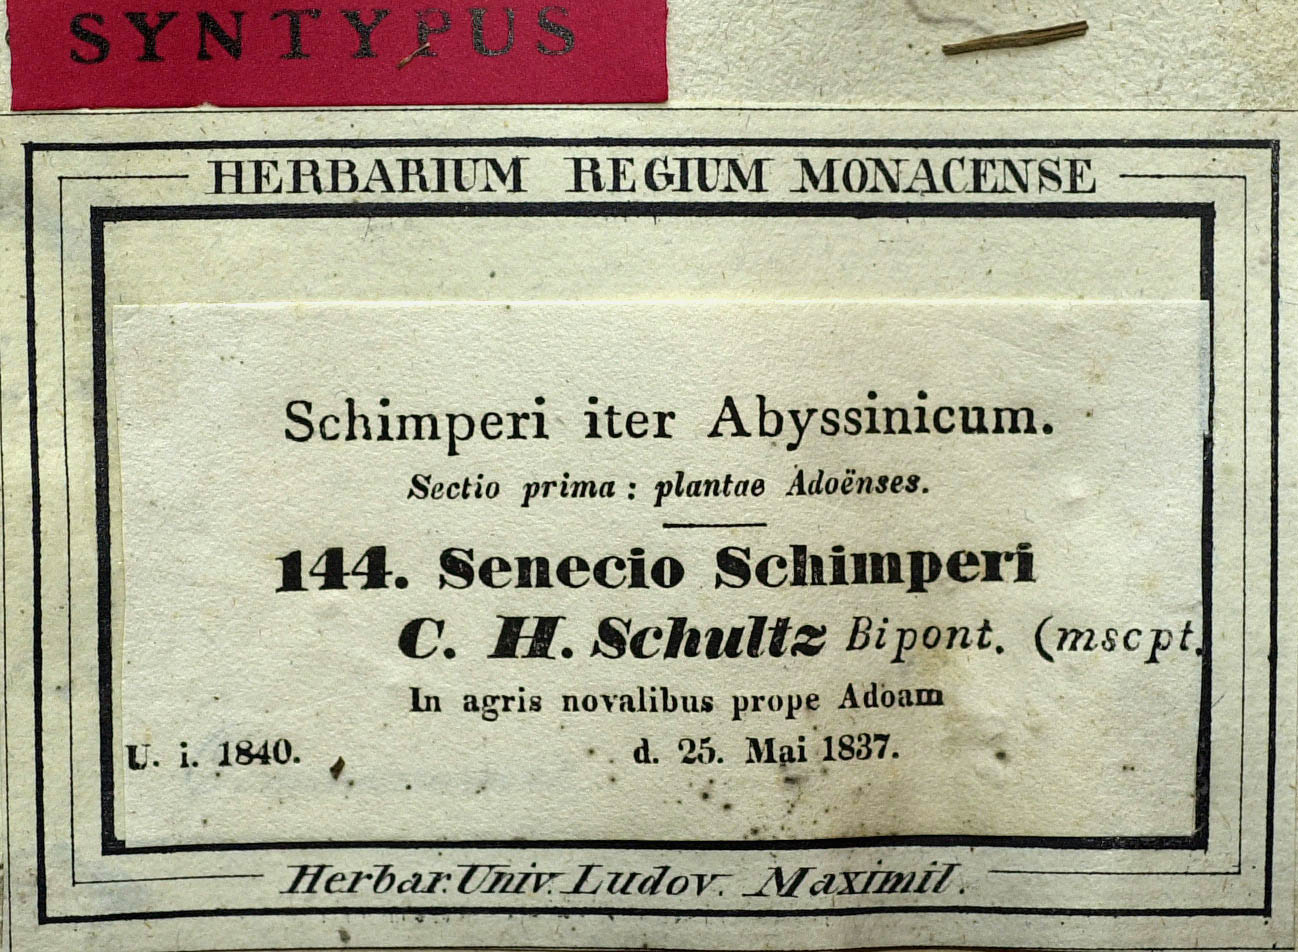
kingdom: Plantae
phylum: Tracheophyta
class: Magnoliopsida
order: Asterales
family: Asteraceae
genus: Senecio
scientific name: Senecio schimperi
